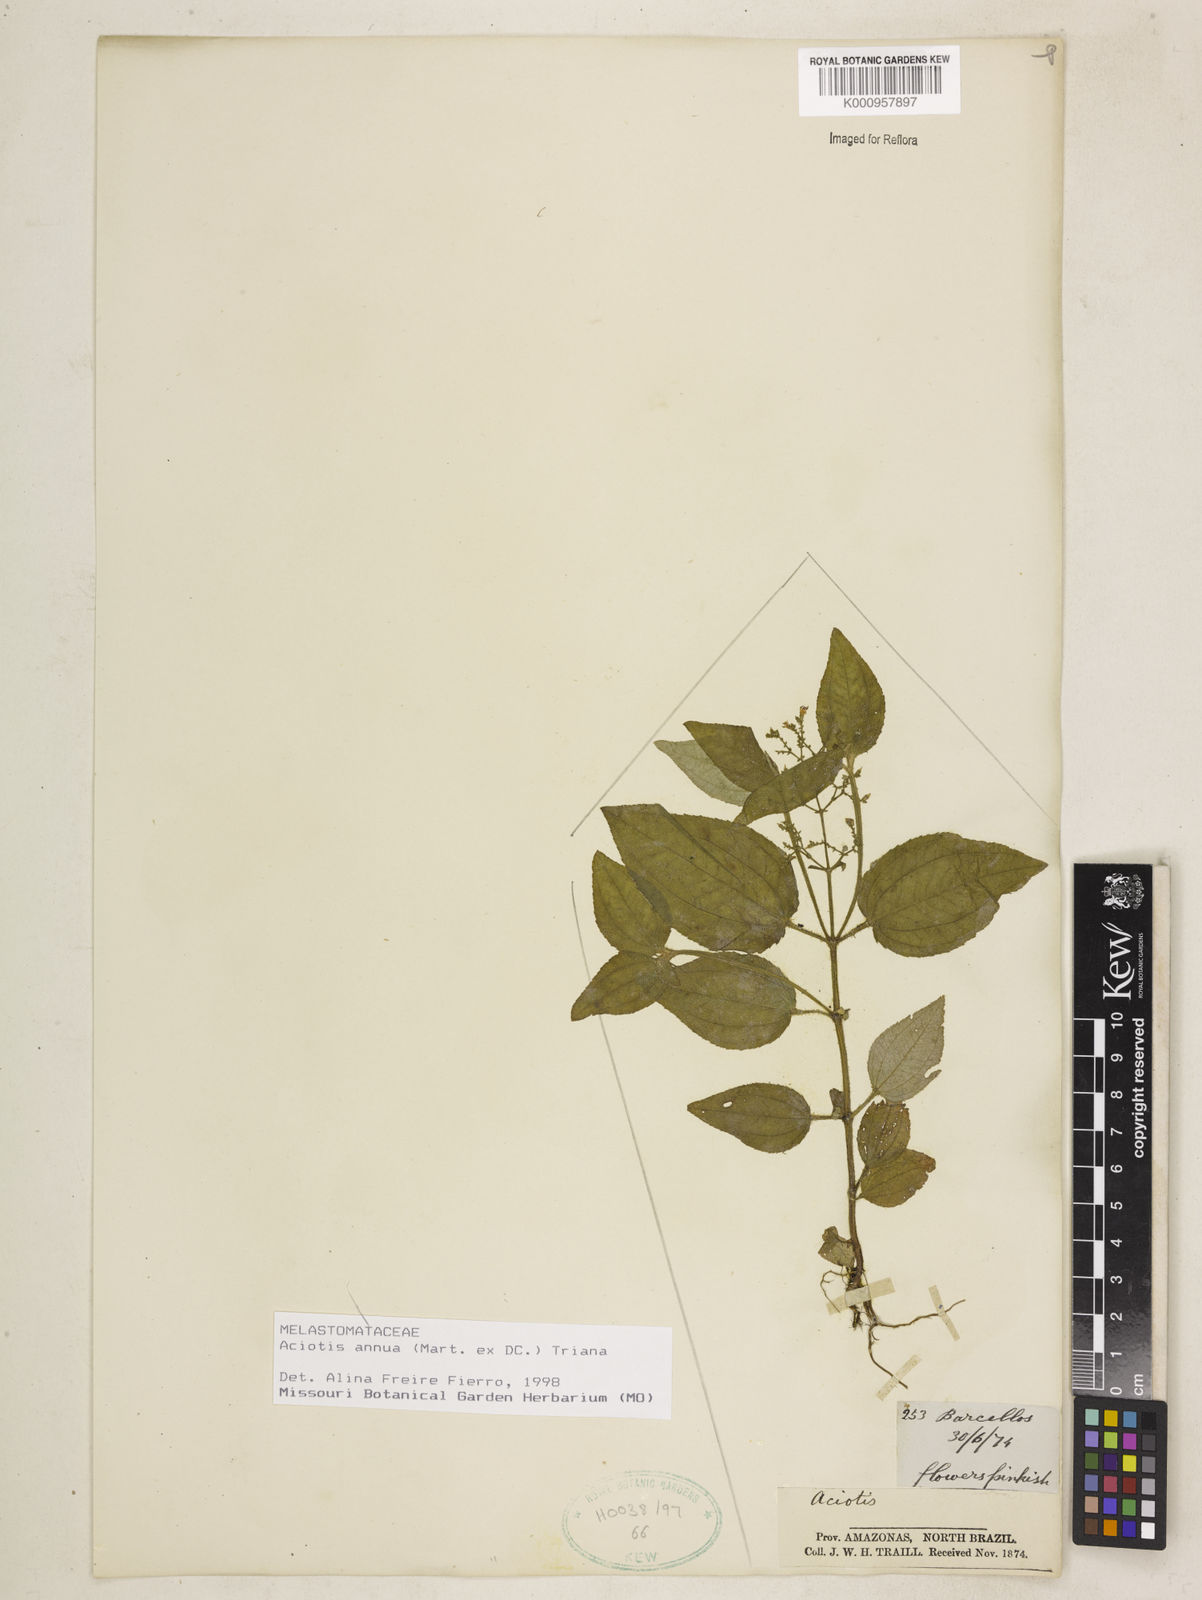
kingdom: Plantae
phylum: Tracheophyta
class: Magnoliopsida
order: Myrtales
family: Melastomataceae
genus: Aciotis
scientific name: Aciotis annua
